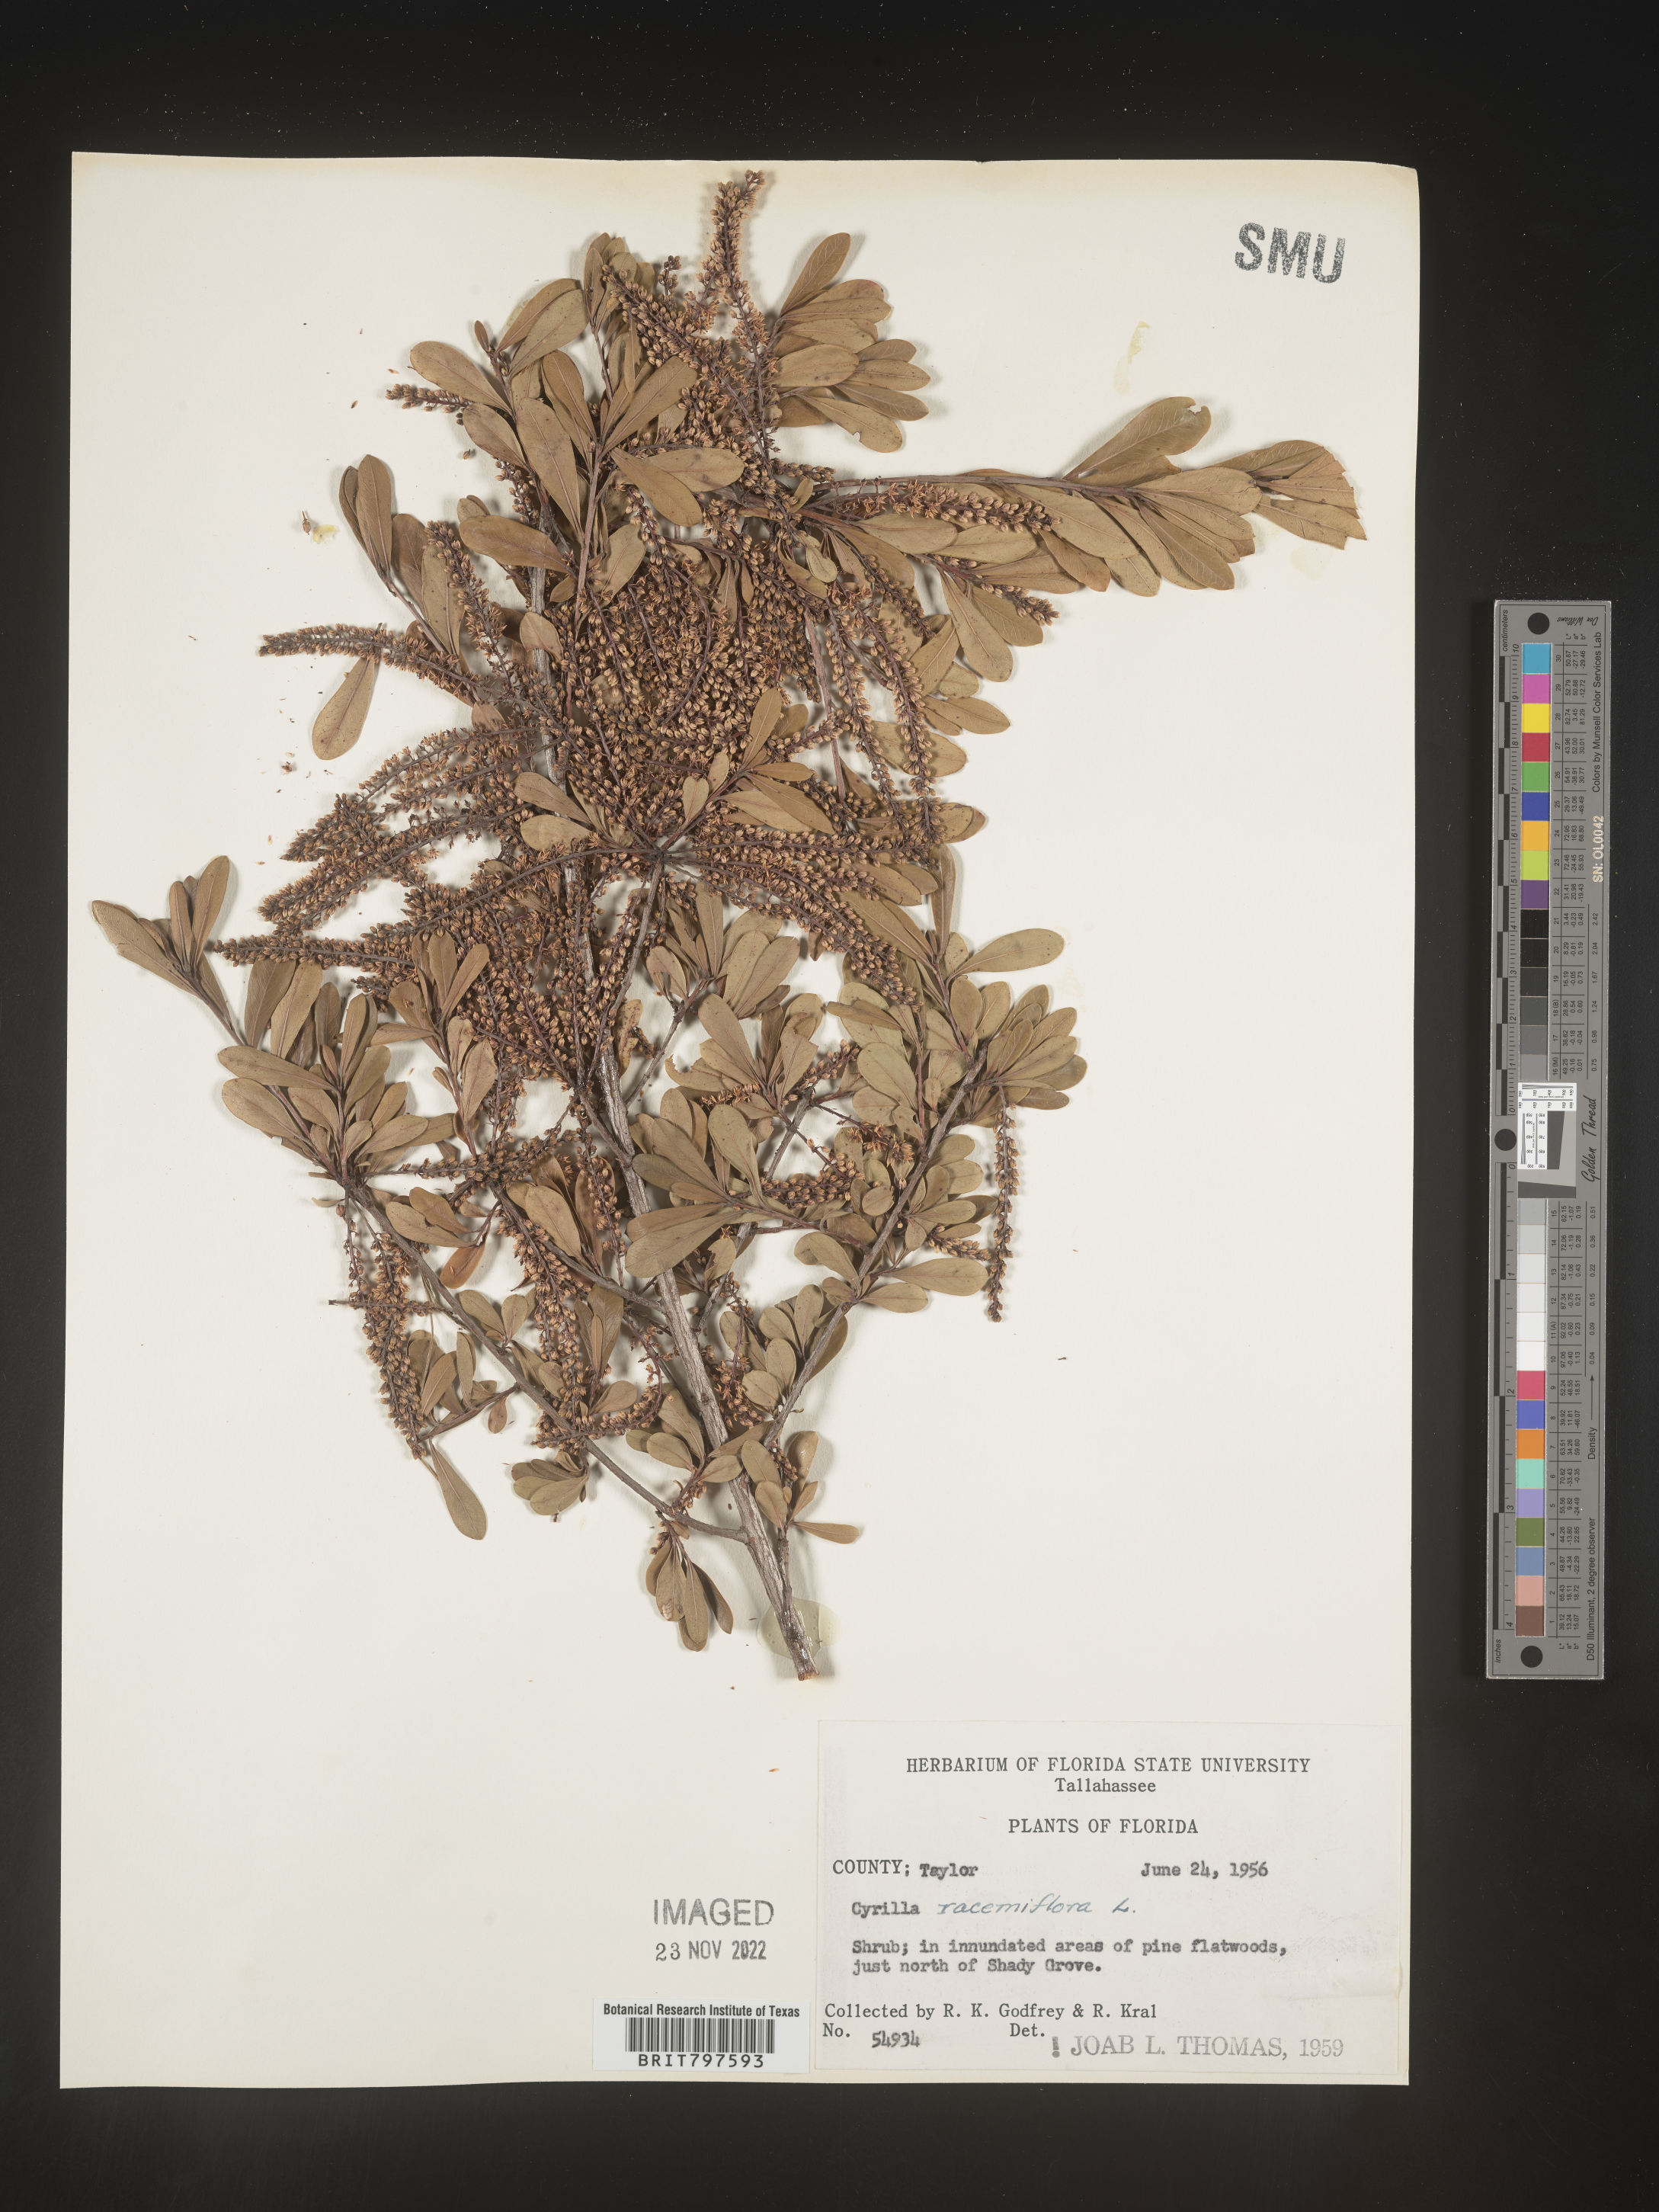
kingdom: Plantae
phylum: Tracheophyta
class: Magnoliopsida
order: Ericales
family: Cyrillaceae
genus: Cyrilla
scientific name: Cyrilla racemiflora
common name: Black titi
